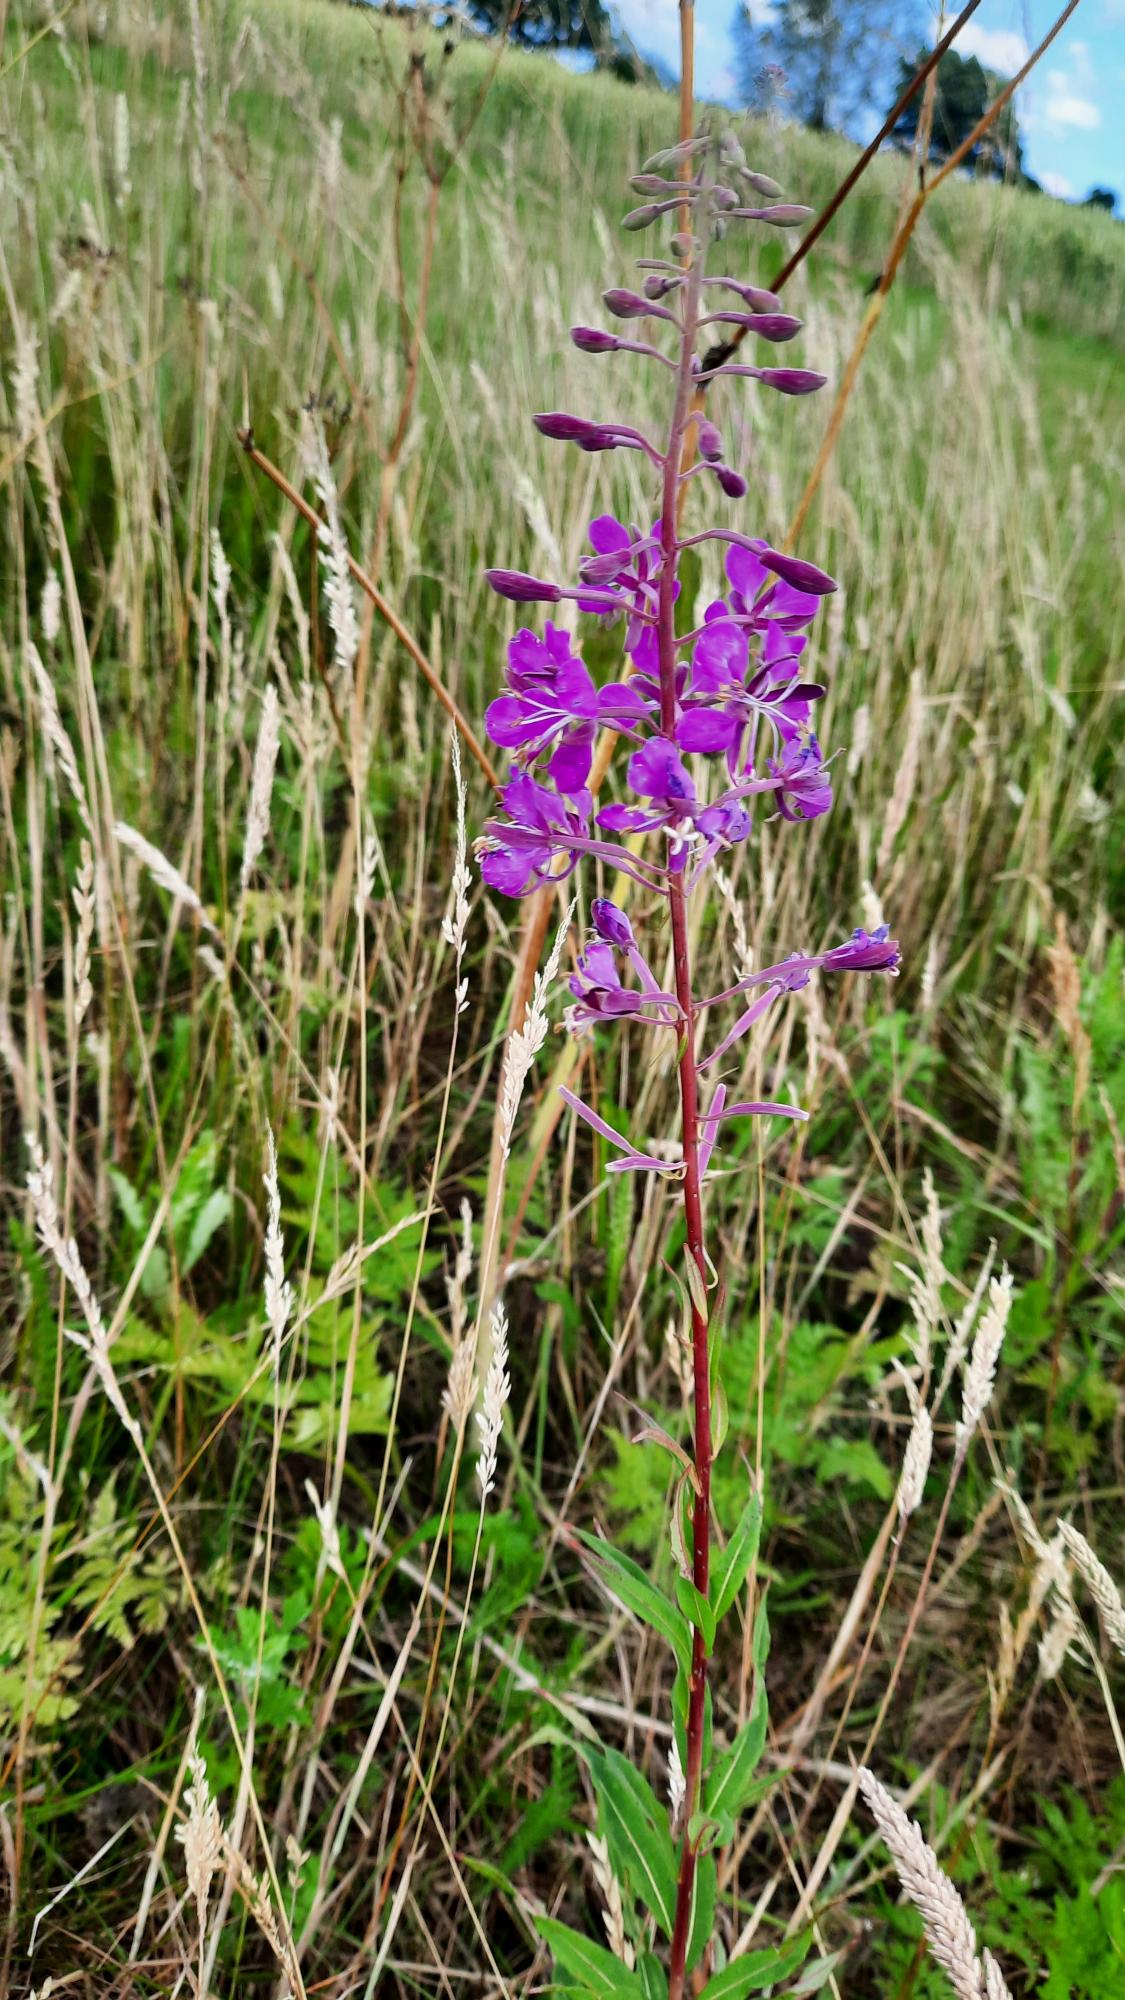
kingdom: Plantae
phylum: Tracheophyta
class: Magnoliopsida
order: Myrtales
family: Onagraceae
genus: Chamaenerion
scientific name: Chamaenerion angustifolium
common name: Gederams
